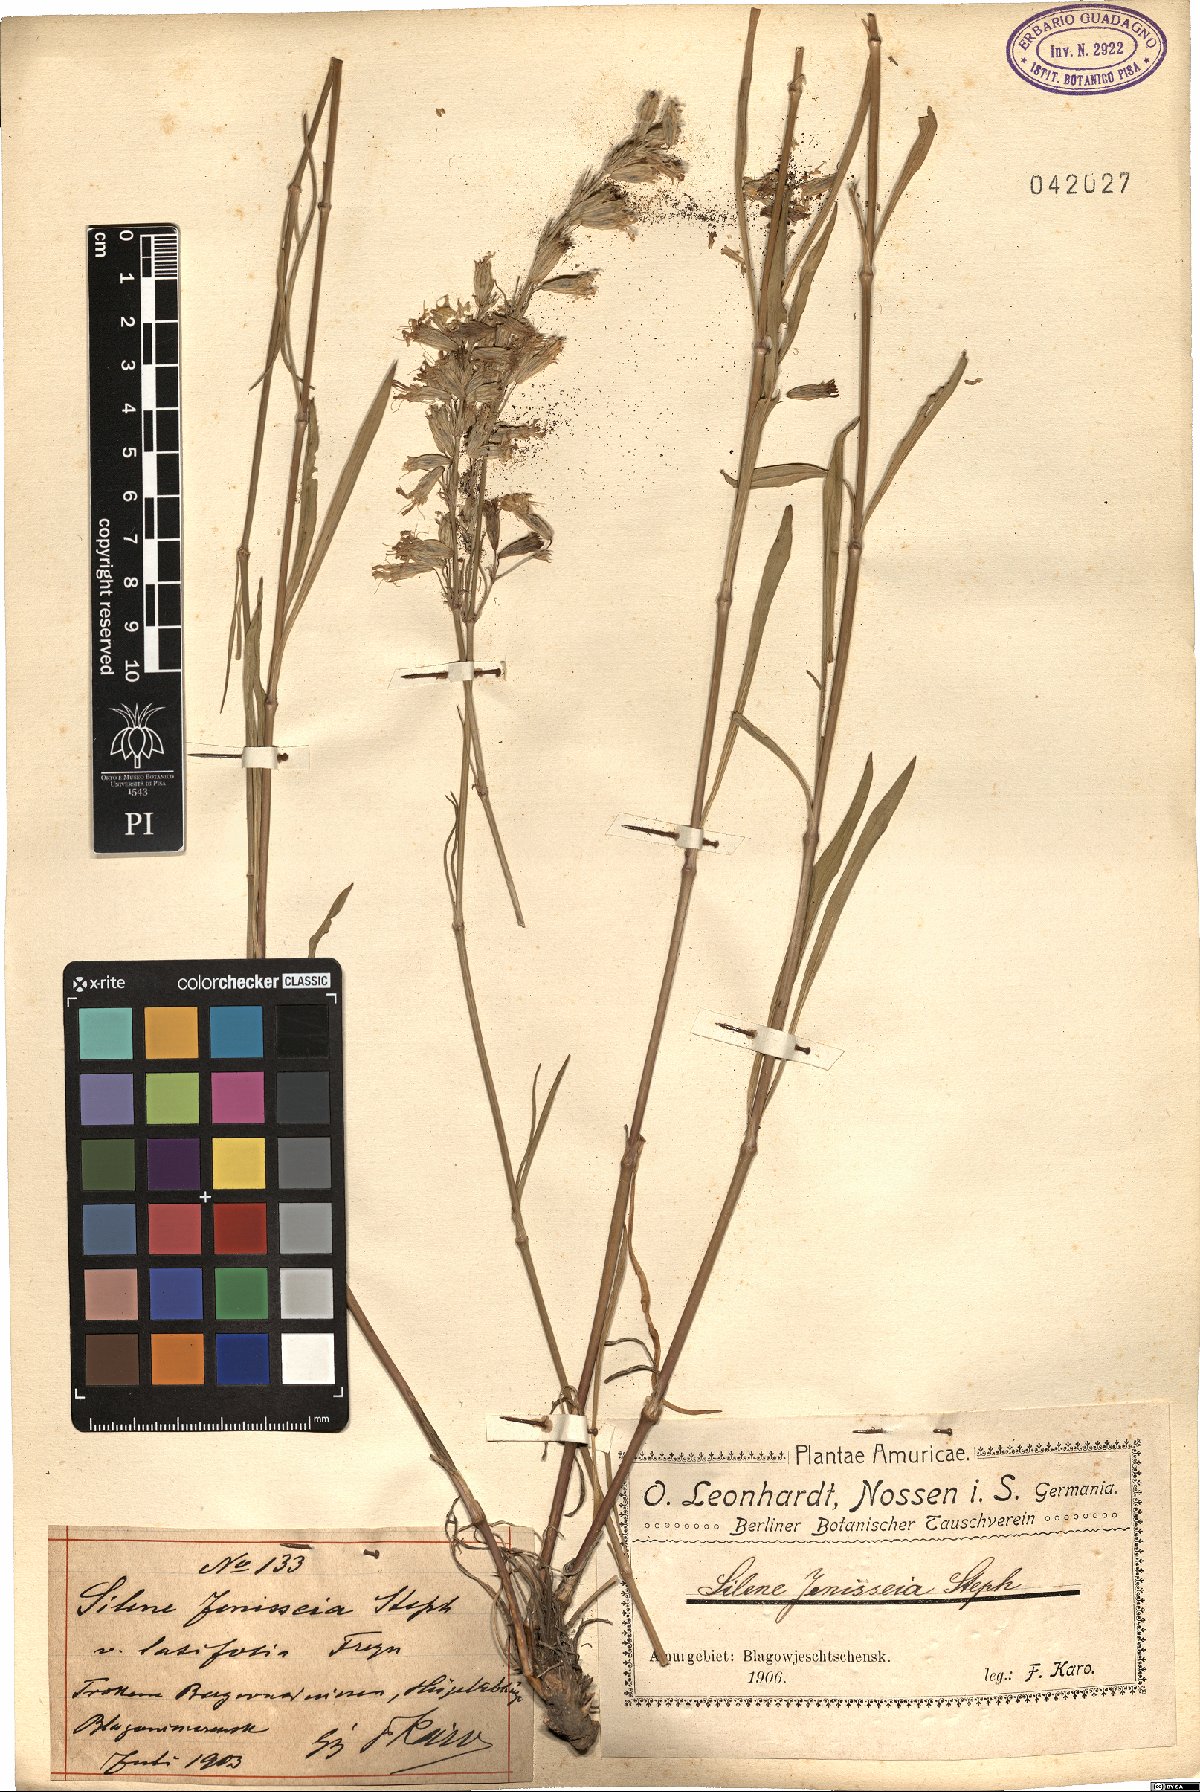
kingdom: Plantae
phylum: Tracheophyta
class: Magnoliopsida
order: Caryophyllales
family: Caryophyllaceae
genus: Silene
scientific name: Silene jeniseensis
